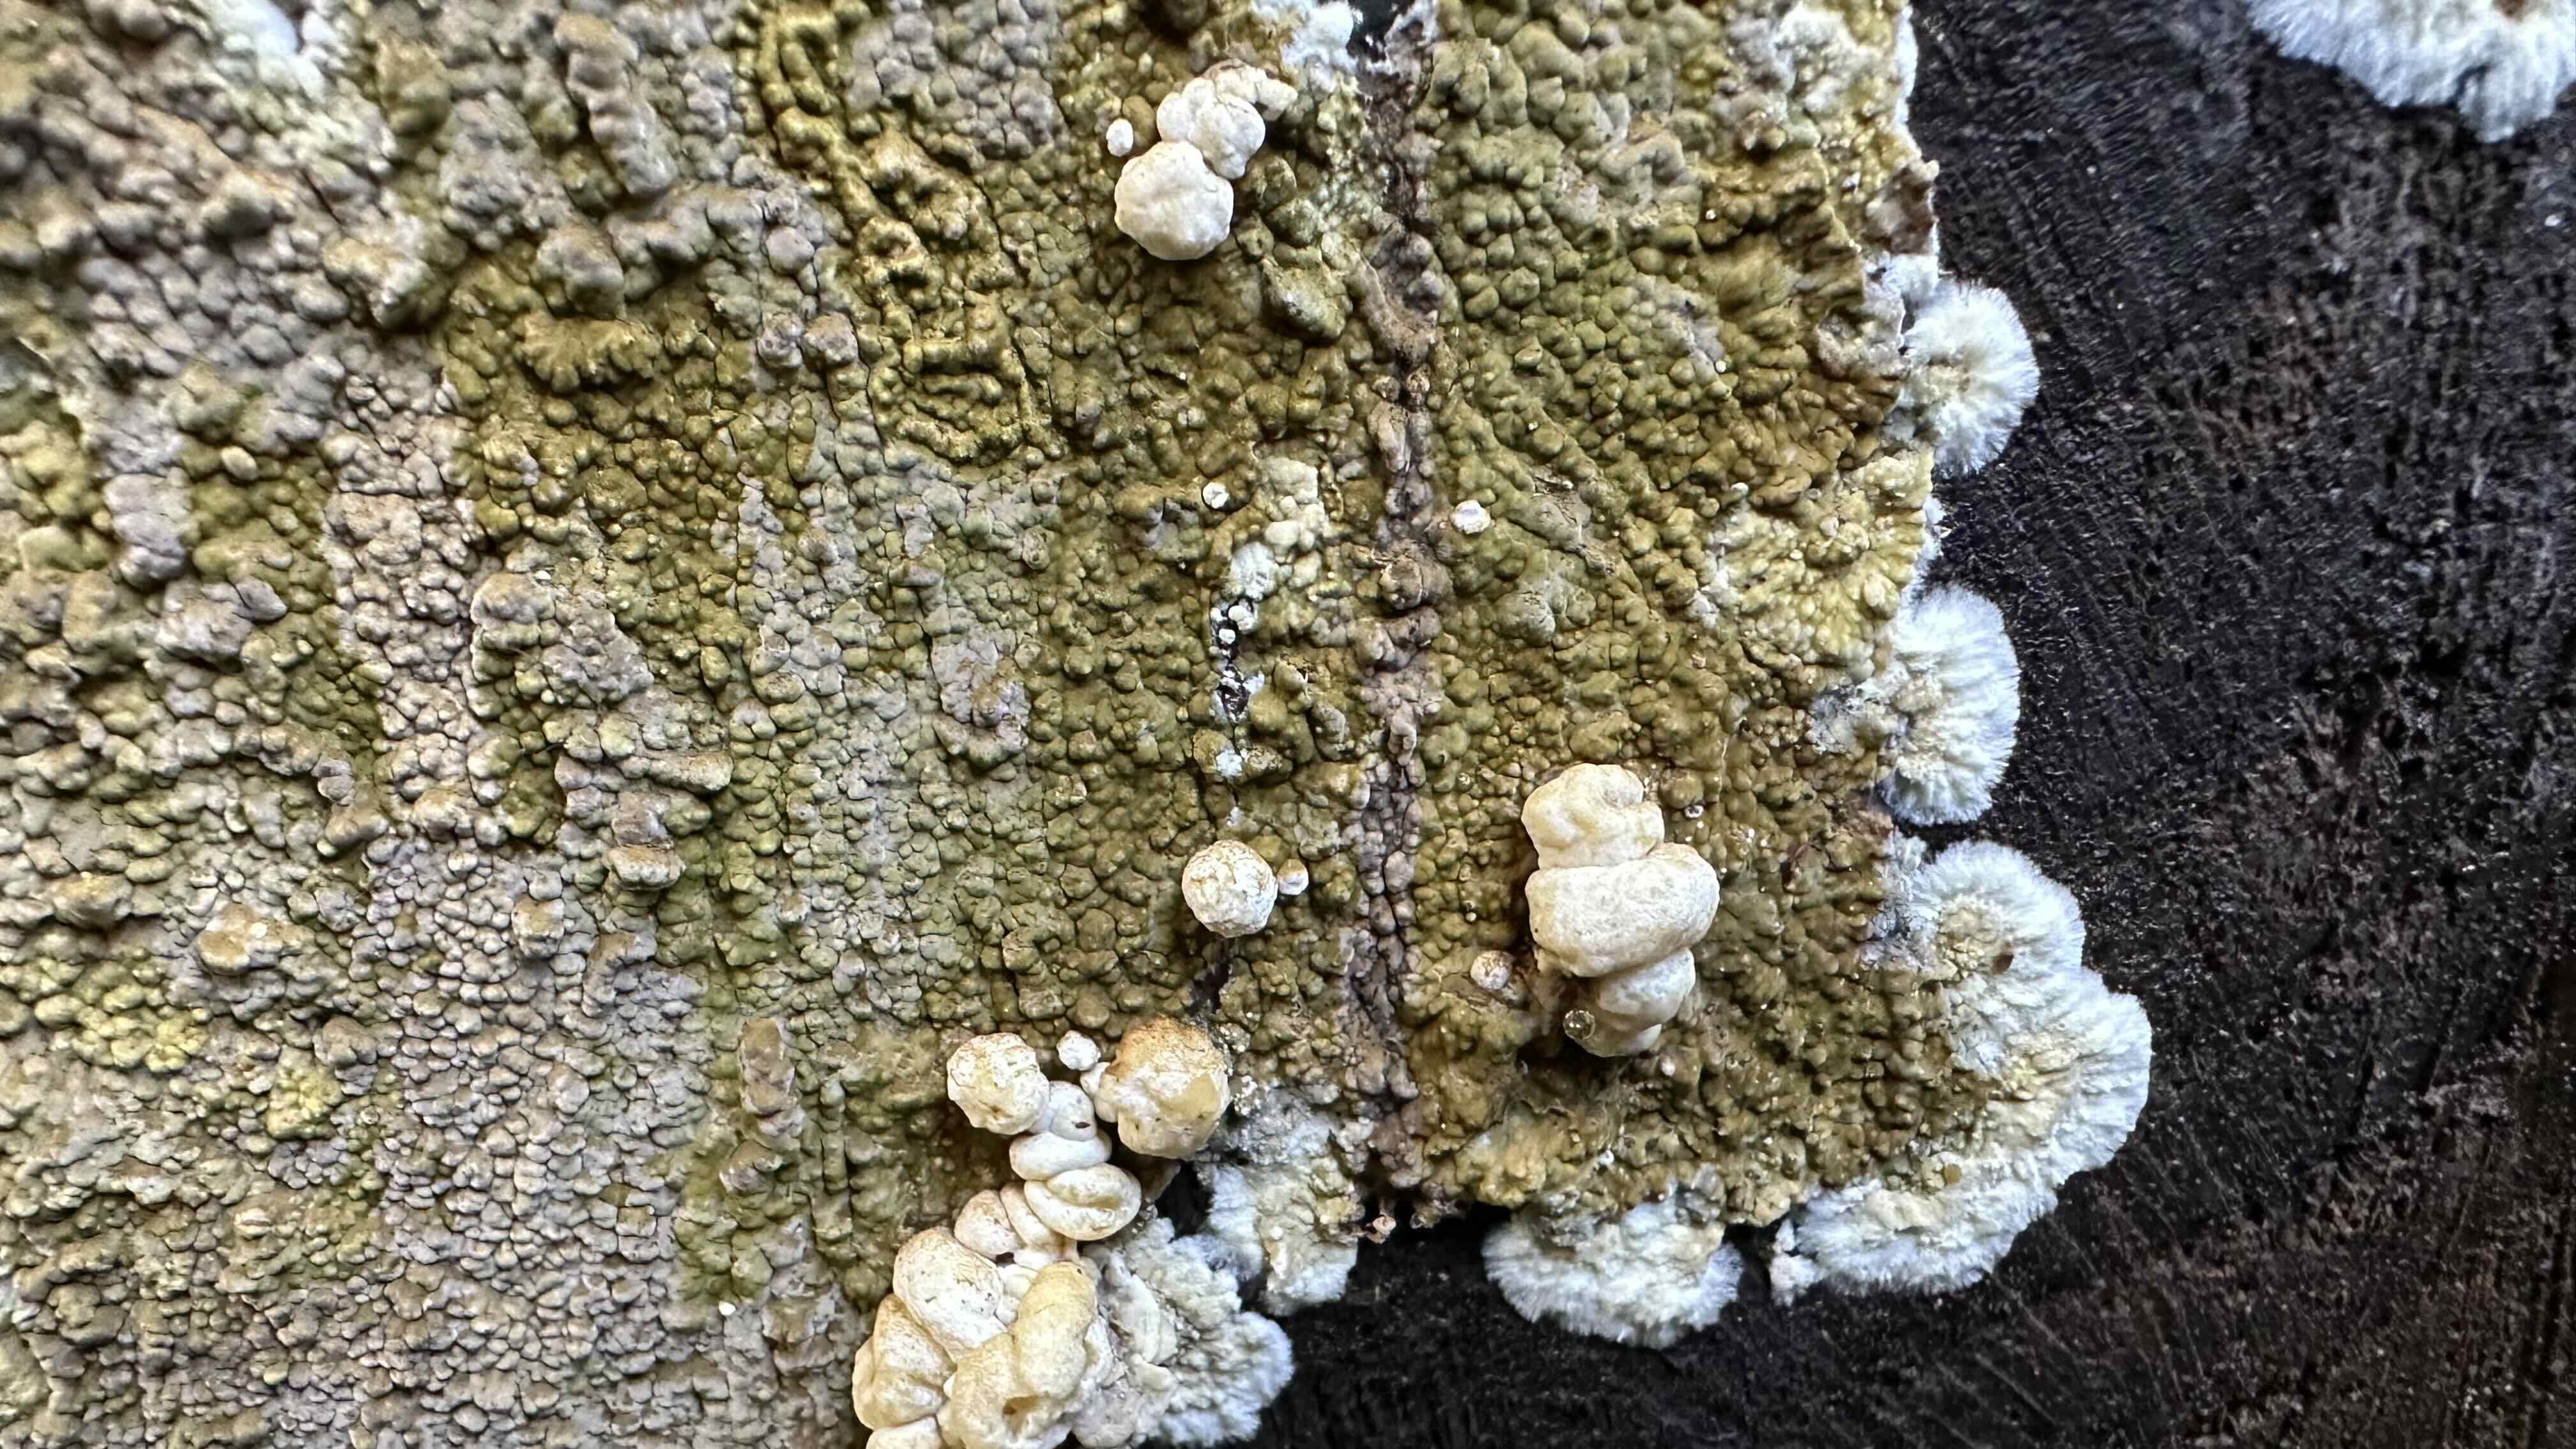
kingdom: Fungi
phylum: Basidiomycota
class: Agaricomycetes
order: Boletales
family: Coniophoraceae
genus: Coniophora
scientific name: Coniophora puteana
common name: gul tømmersvamp
